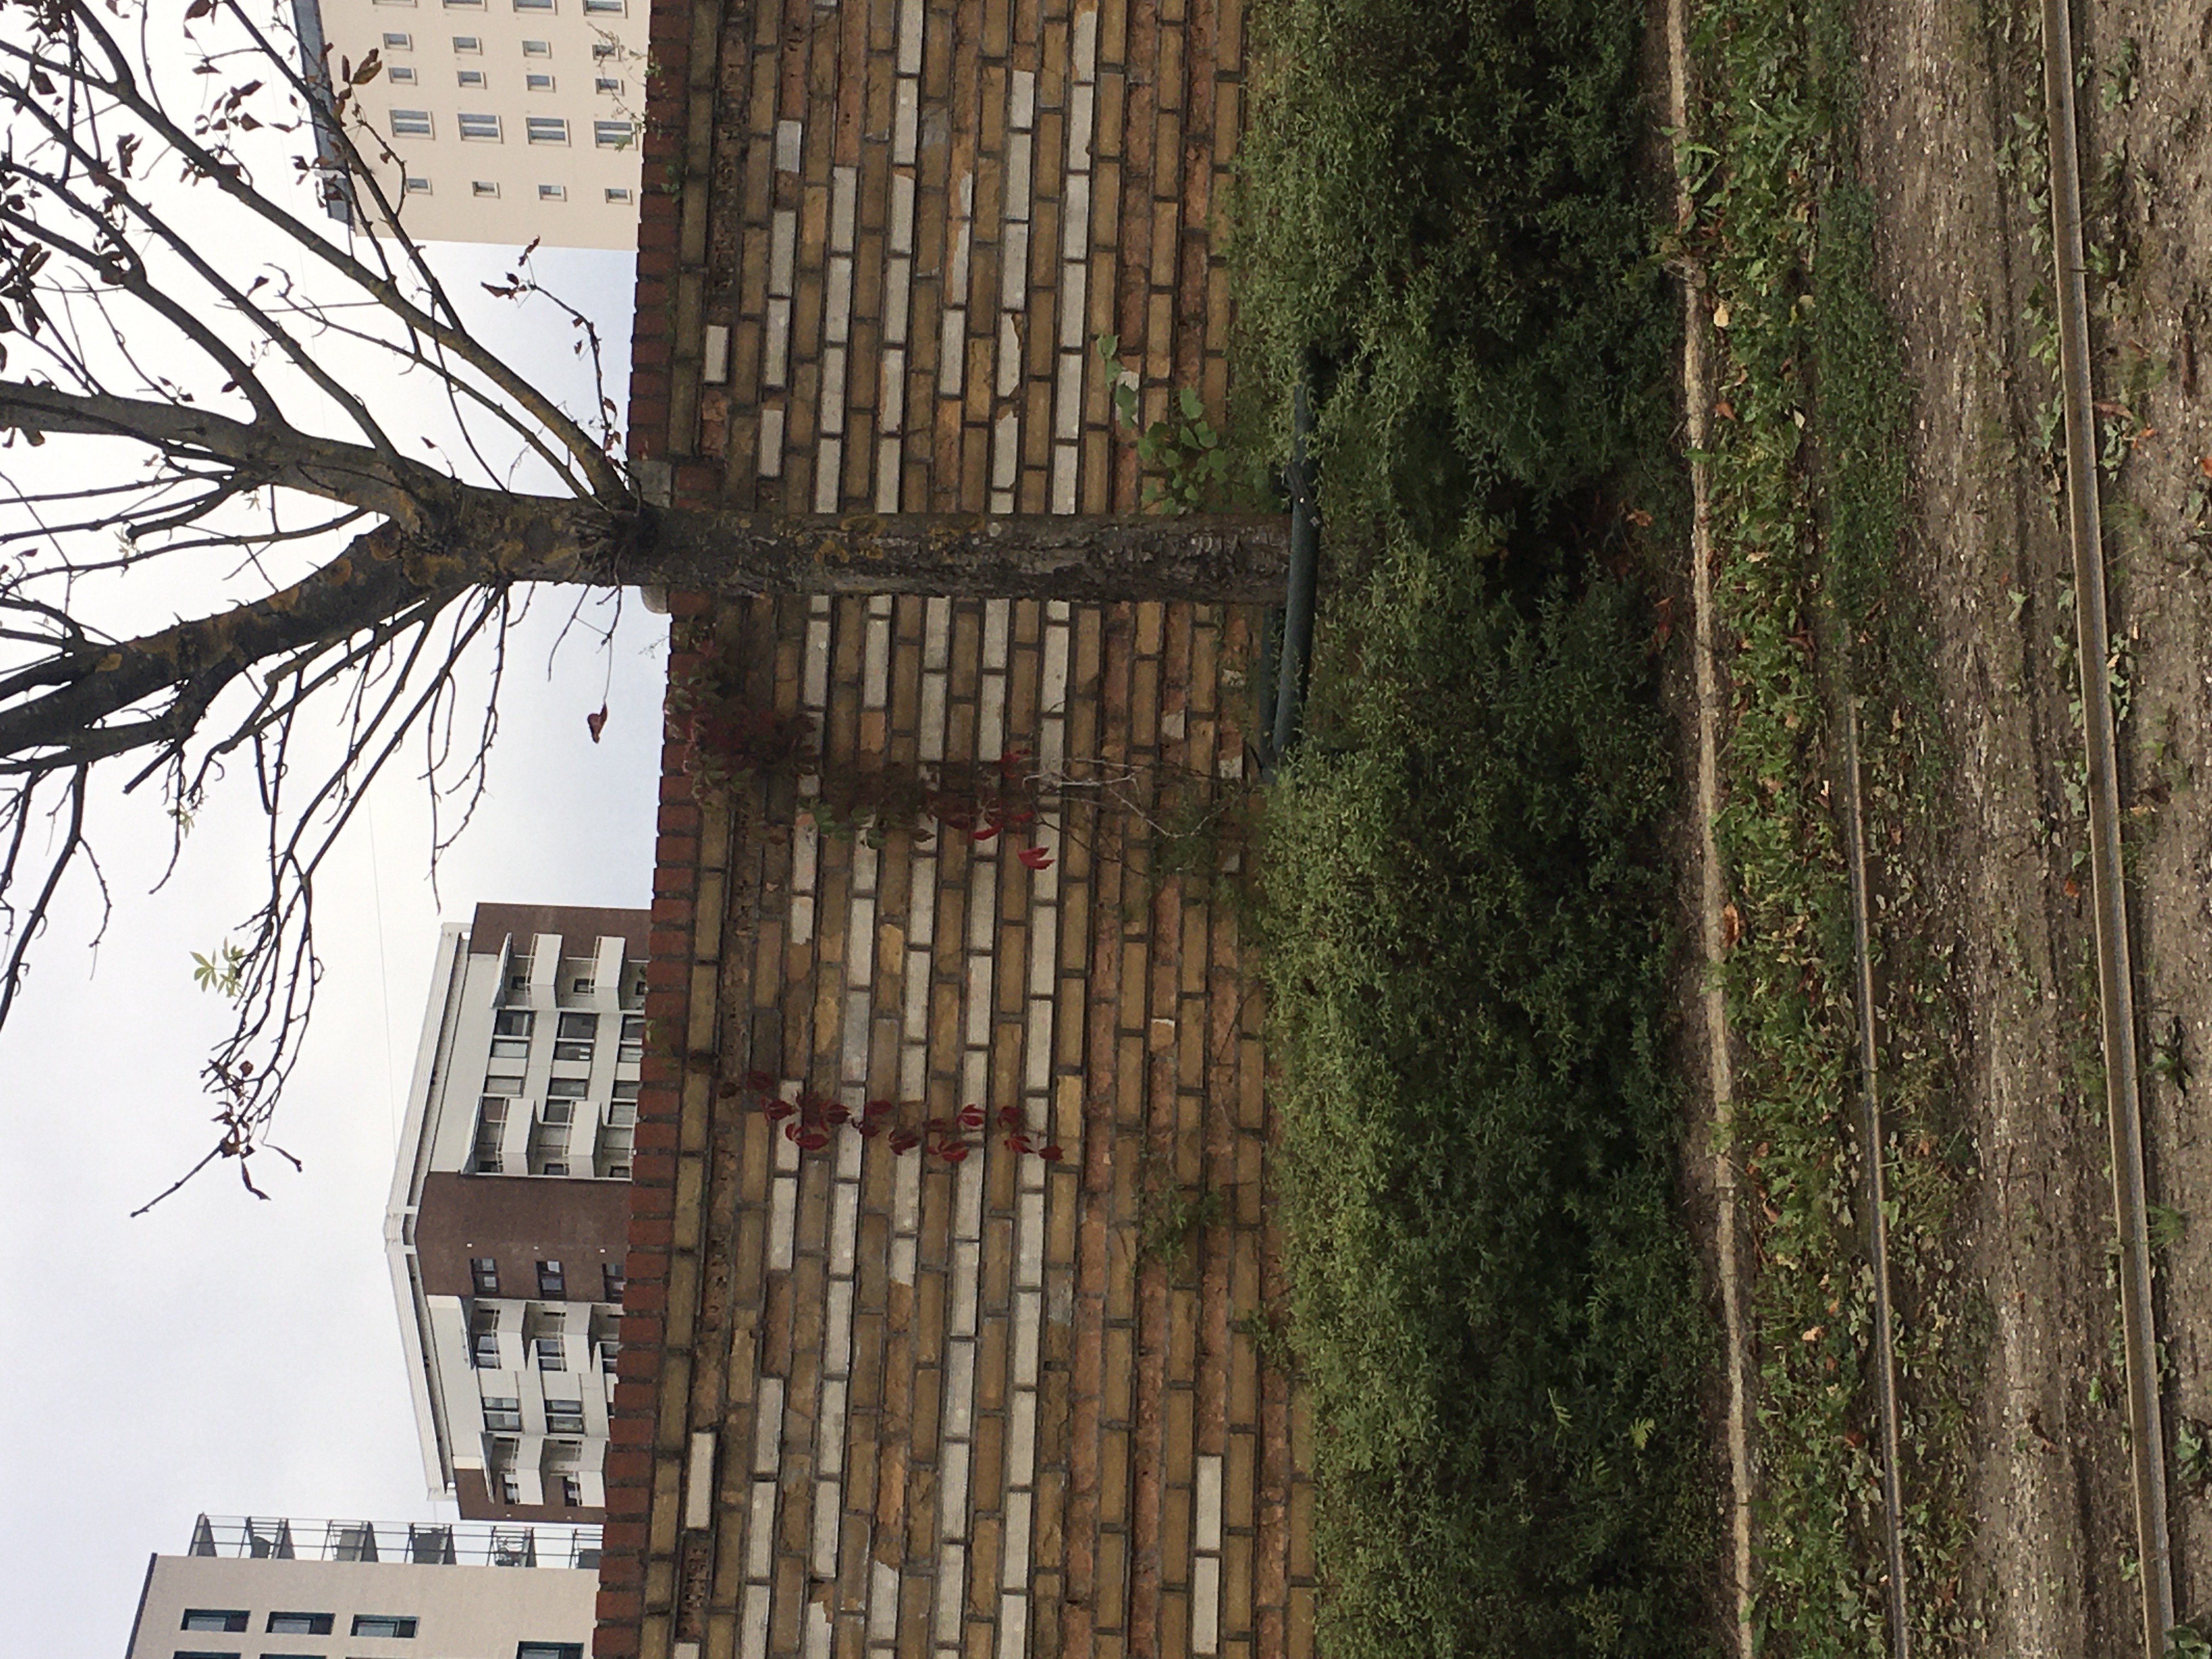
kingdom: Plantae
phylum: Tracheophyta
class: Magnoliopsida
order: Vitales
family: Vitaceae
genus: Parthenocissus
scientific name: Parthenocissus quinquefolia
